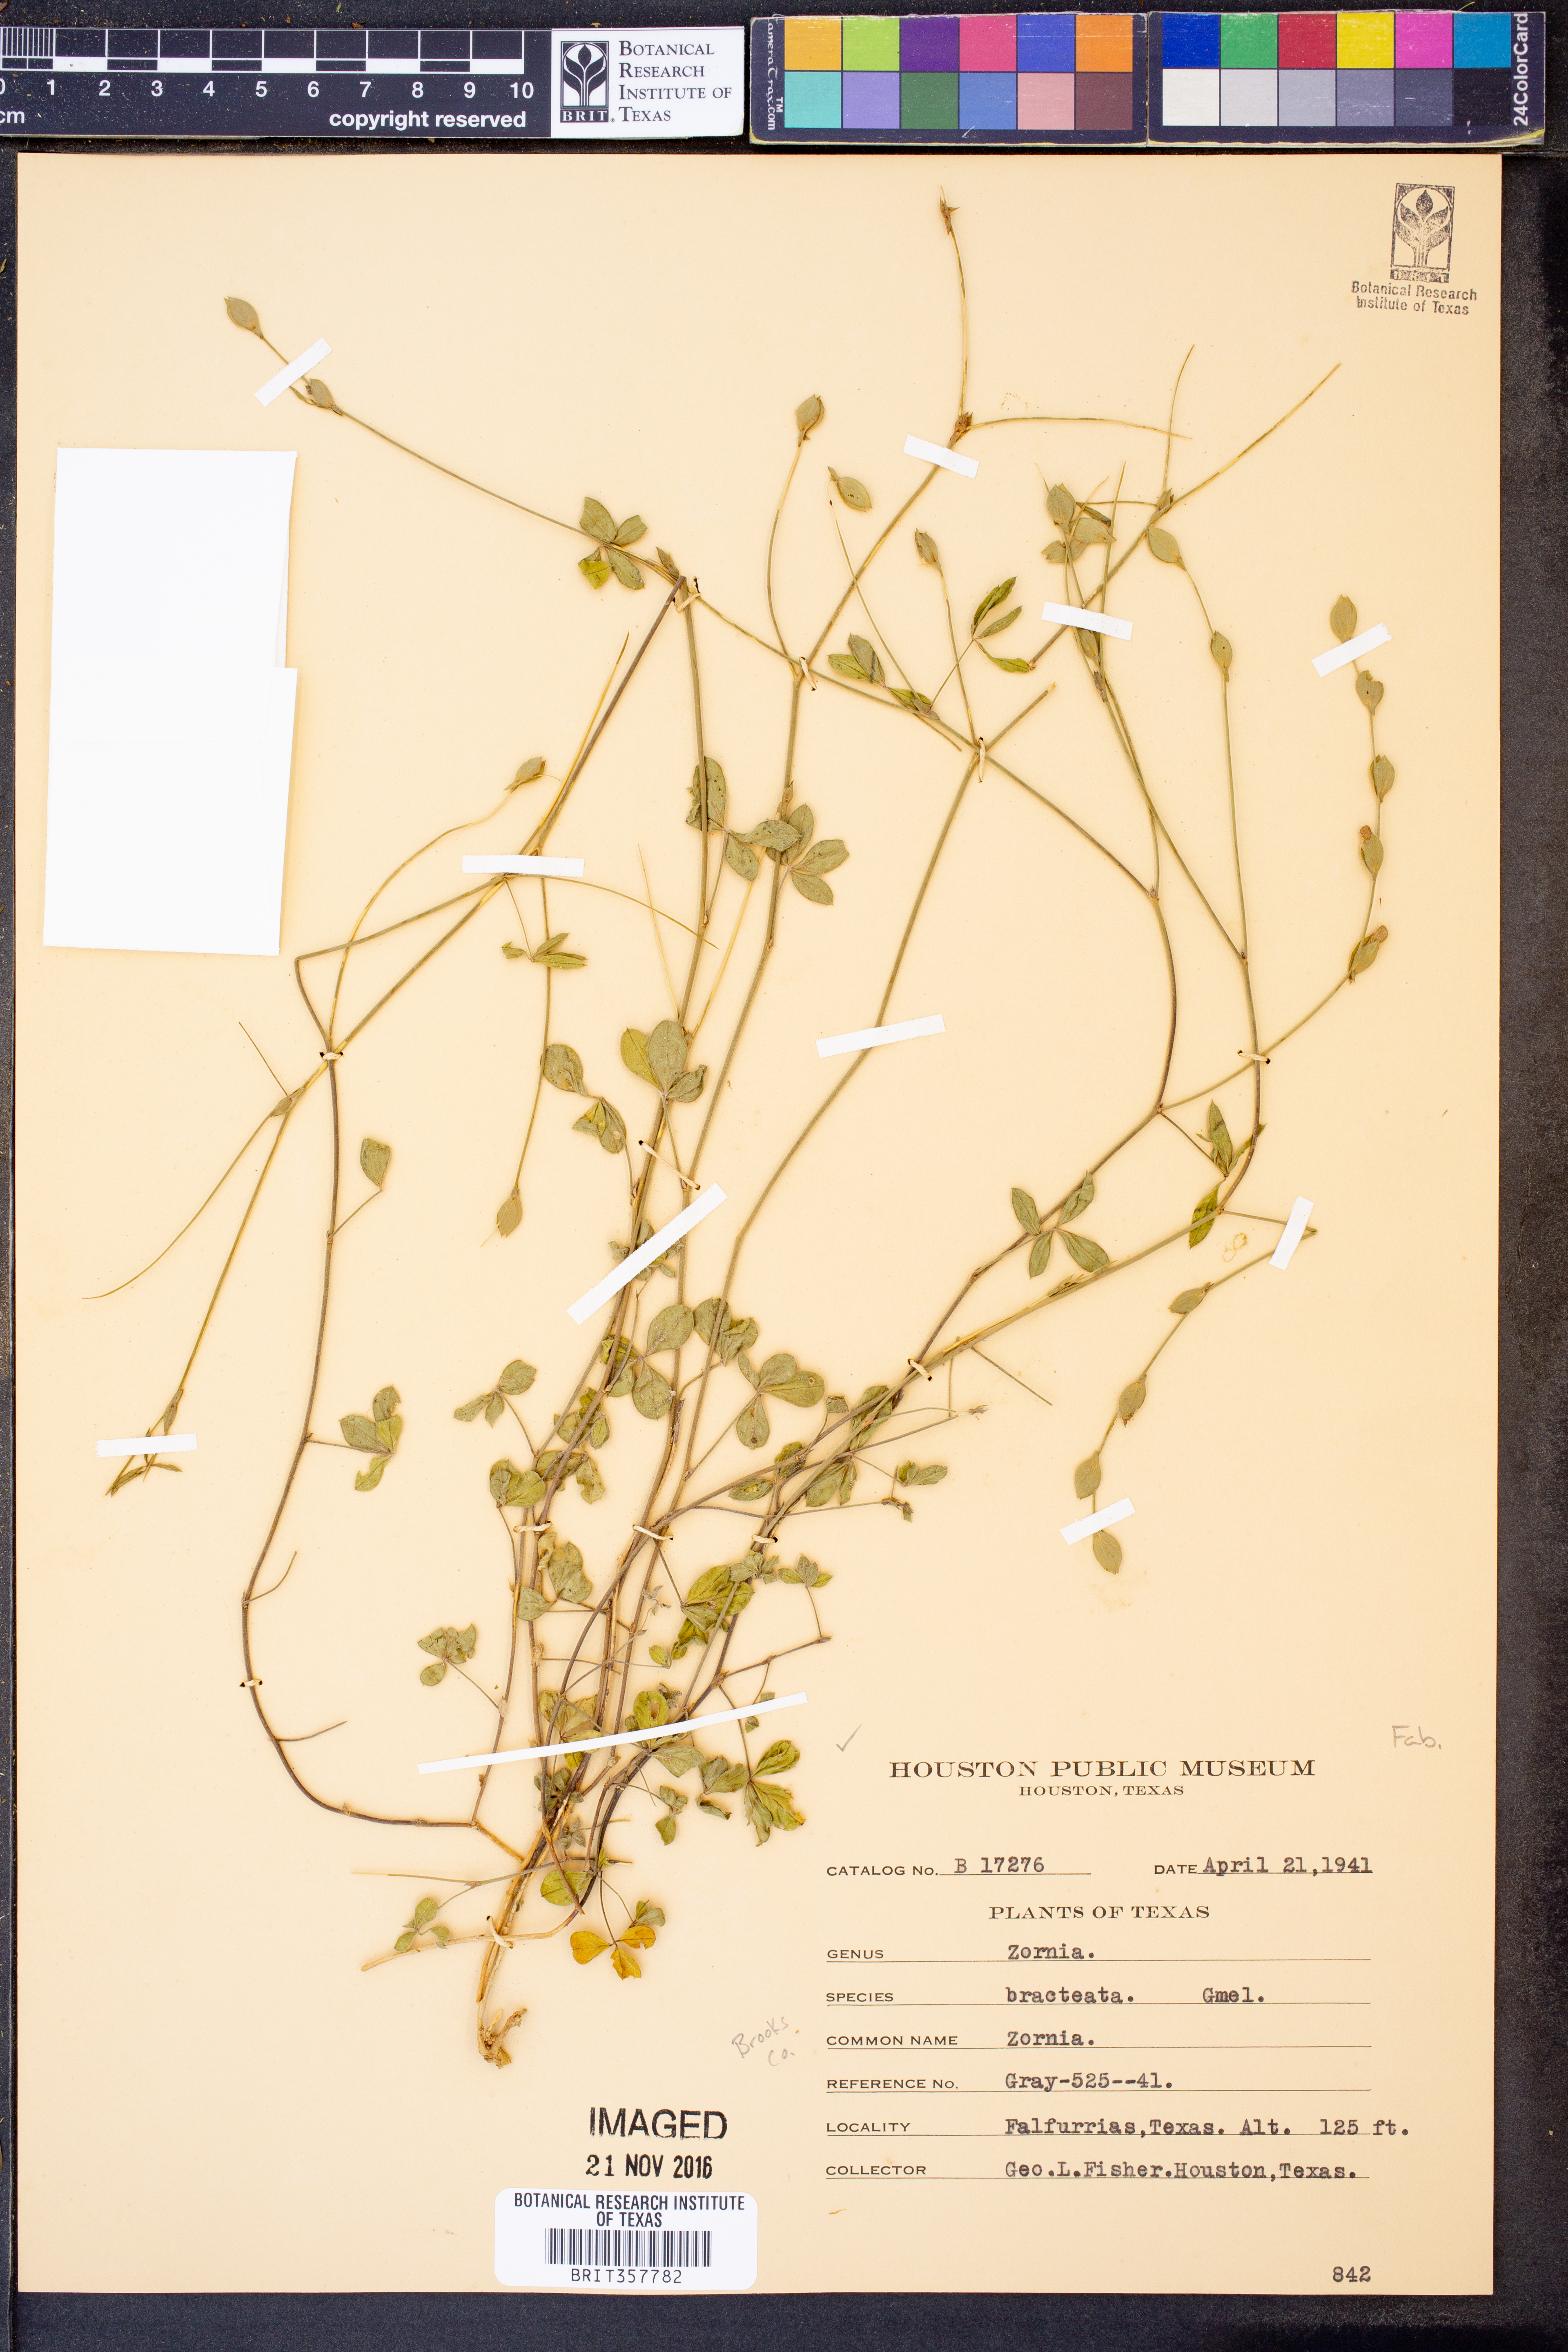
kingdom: Plantae
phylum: Tracheophyta
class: Magnoliopsida
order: Fabales
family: Fabaceae
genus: Zornia
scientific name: Zornia bracteata
